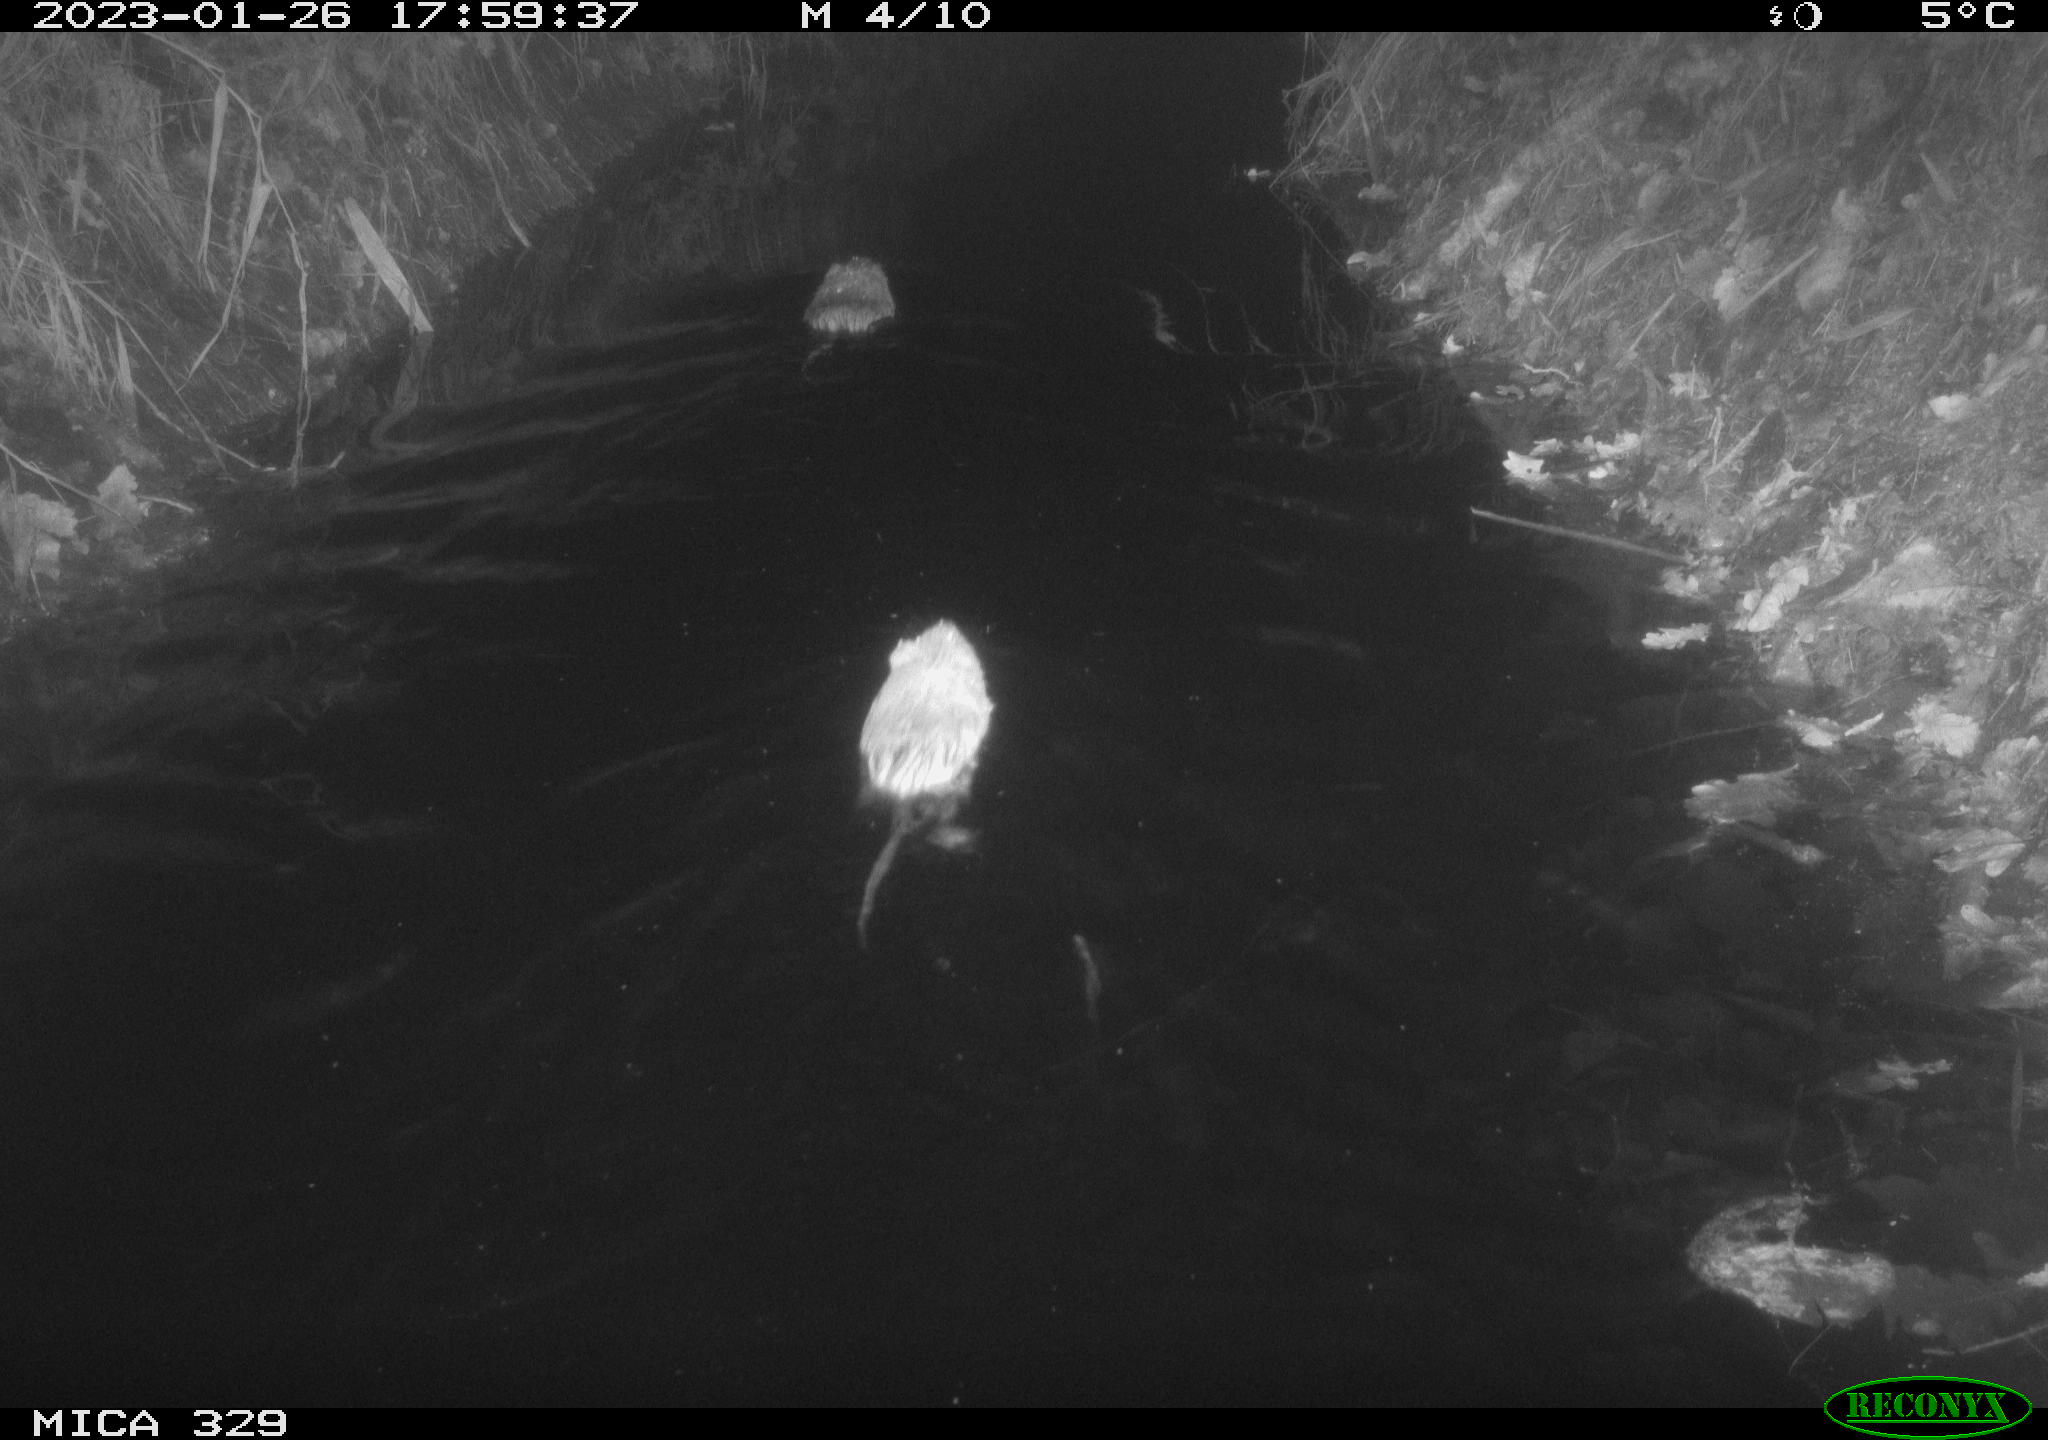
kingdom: Animalia
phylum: Chordata
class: Mammalia
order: Rodentia
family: Cricetidae
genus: Ondatra
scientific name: Ondatra zibethicus
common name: Muskrat
